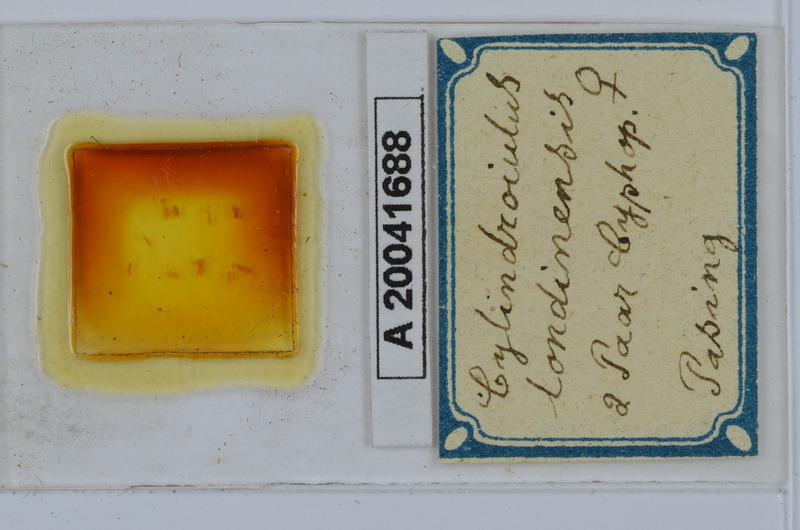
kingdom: Animalia
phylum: Arthropoda
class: Diplopoda
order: Julida
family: Julidae
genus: Cylindroiulus
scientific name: Cylindroiulus londinensis
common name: Black millipede
